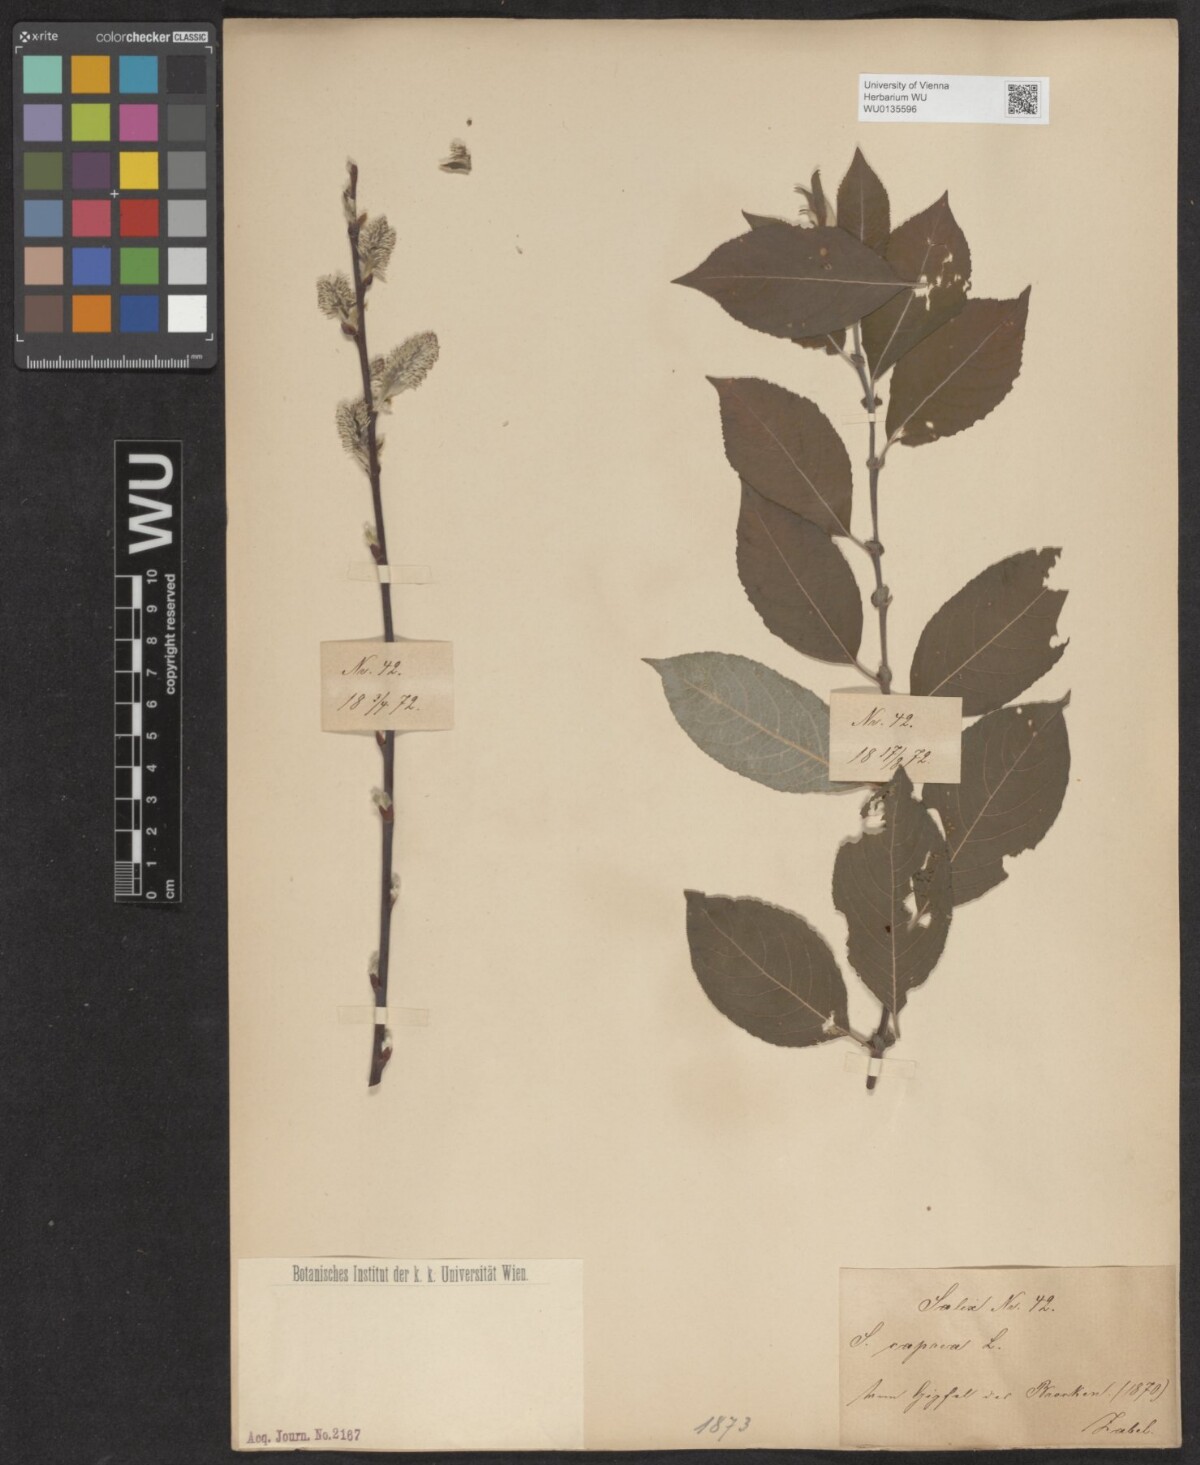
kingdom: Plantae
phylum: Tracheophyta
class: Magnoliopsida
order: Malpighiales
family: Salicaceae
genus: Salix
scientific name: Salix caprea
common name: Goat willow
